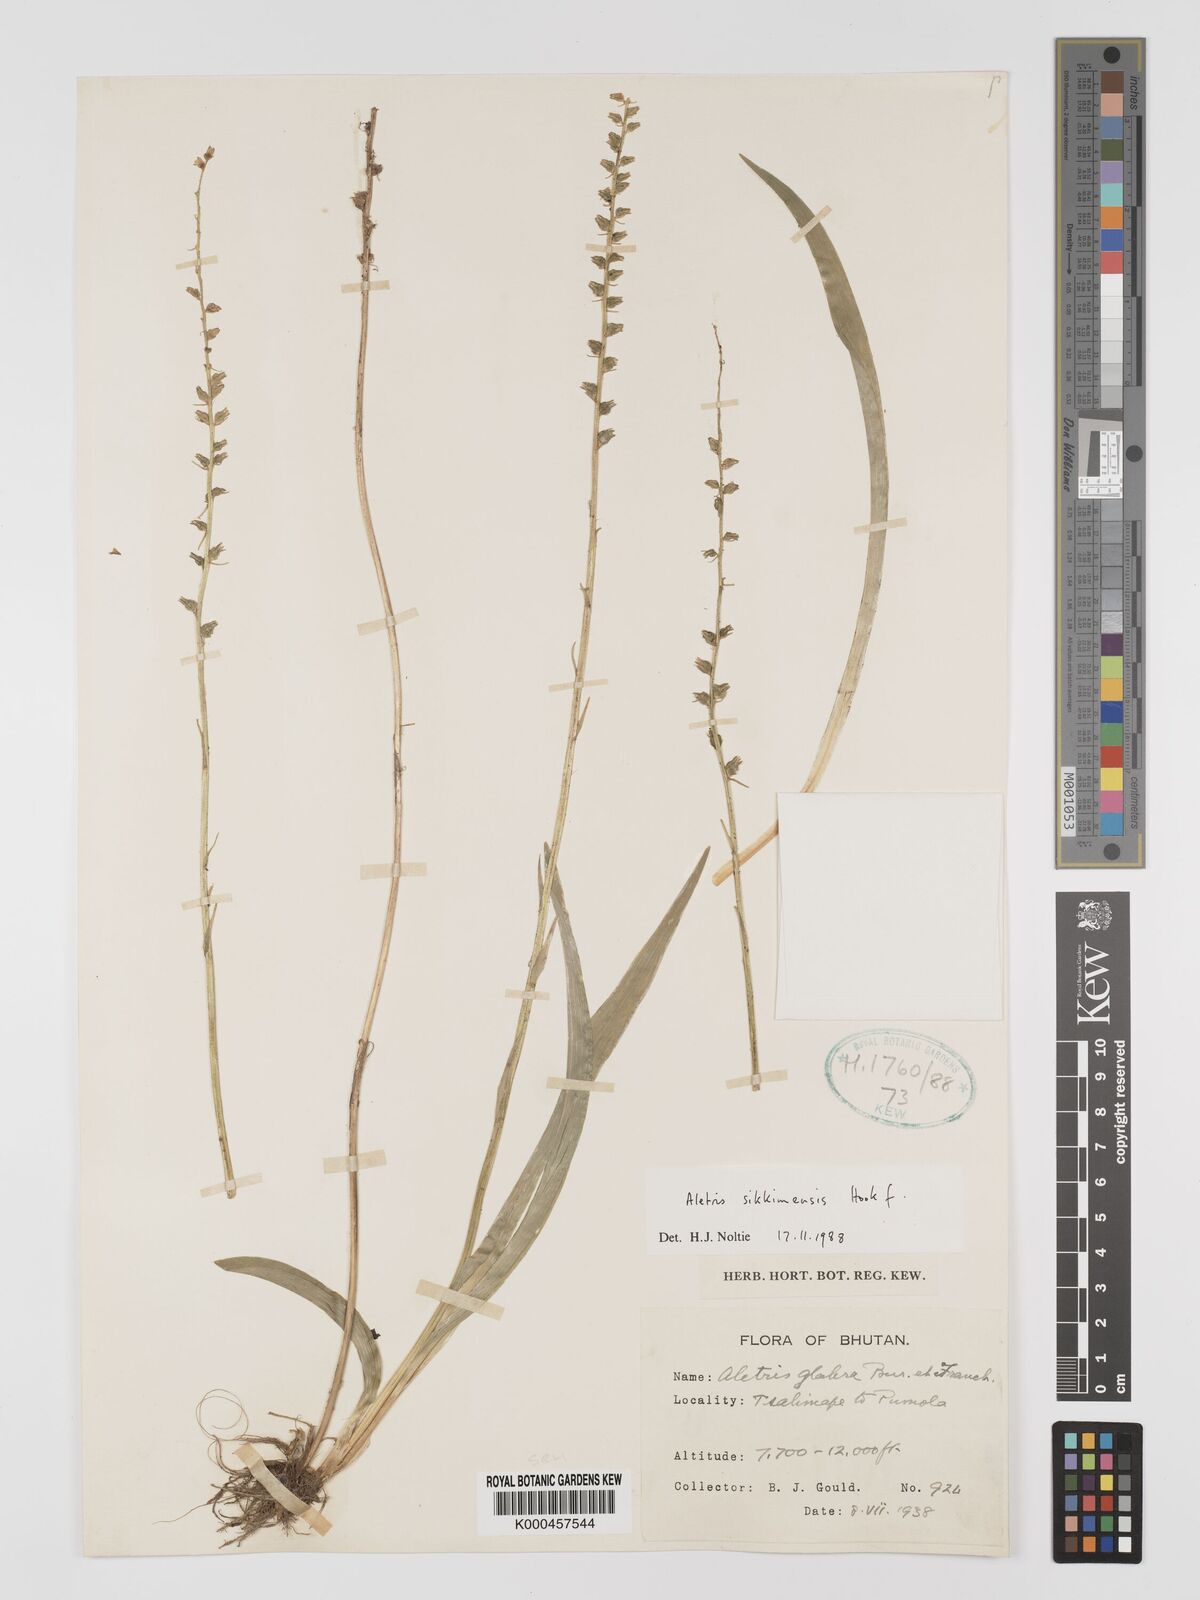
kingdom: Plantae
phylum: Tracheophyta
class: Liliopsida
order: Dioscoreales
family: Nartheciaceae
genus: Aletris
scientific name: Aletris glabra
